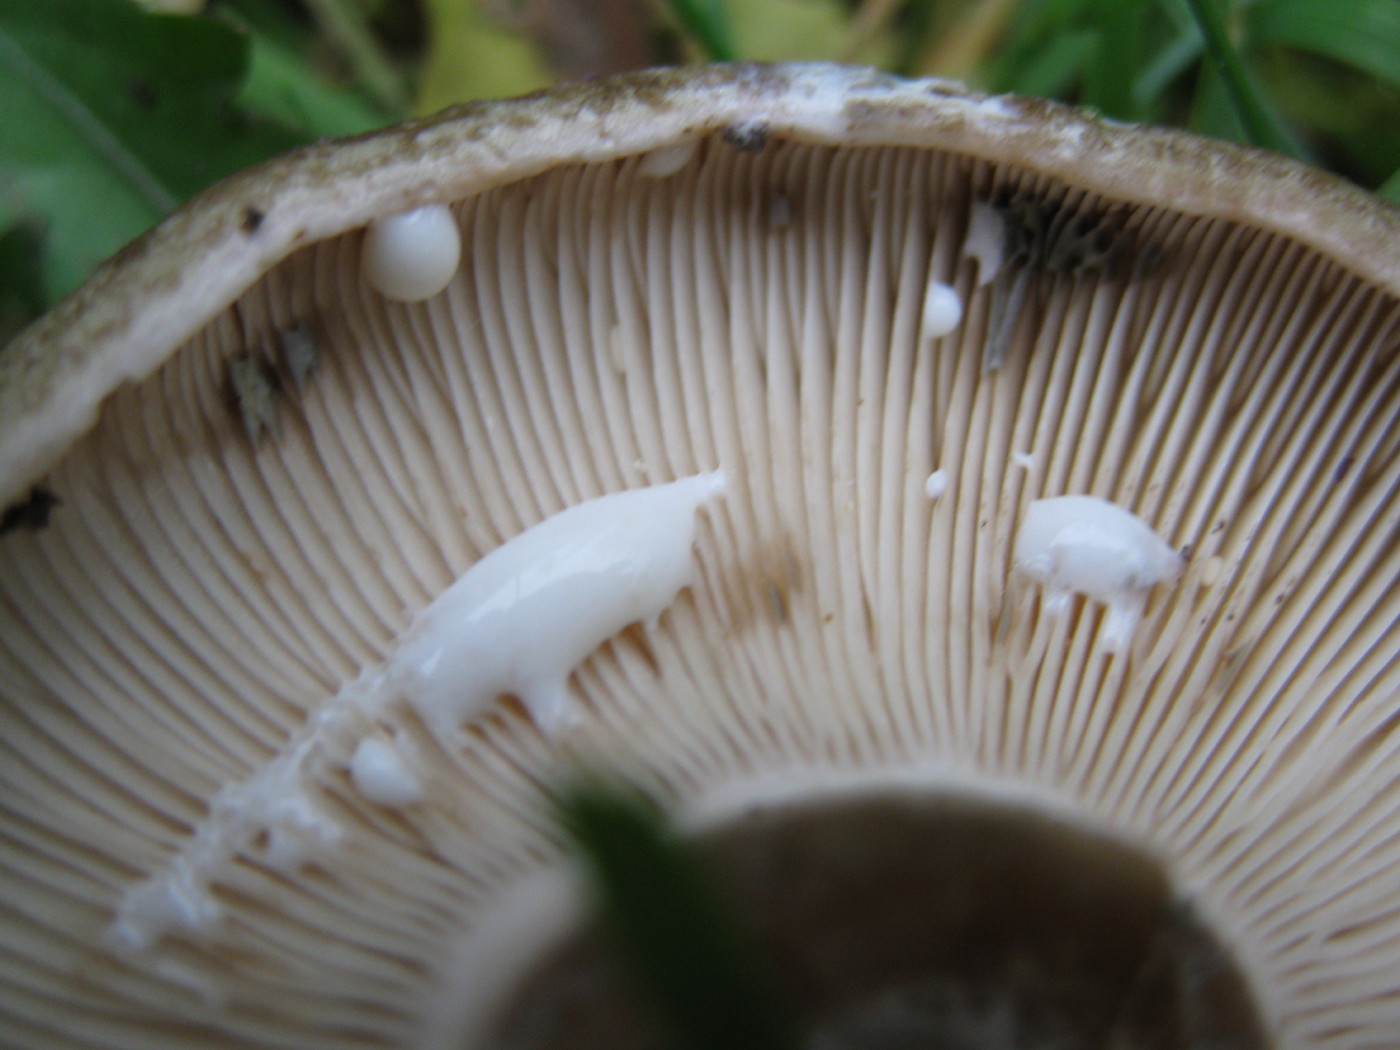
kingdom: Fungi
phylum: Basidiomycota
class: Agaricomycetes
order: Russulales
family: Russulaceae
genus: Lactarius
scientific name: Lactarius blennius
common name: dråbeplettet mælkehat
